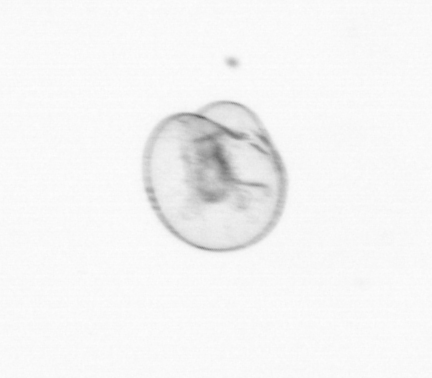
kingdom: Chromista
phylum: Myzozoa
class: Dinophyceae
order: Noctilucales
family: Noctilucaceae
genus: Noctiluca
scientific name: Noctiluca scintillans
